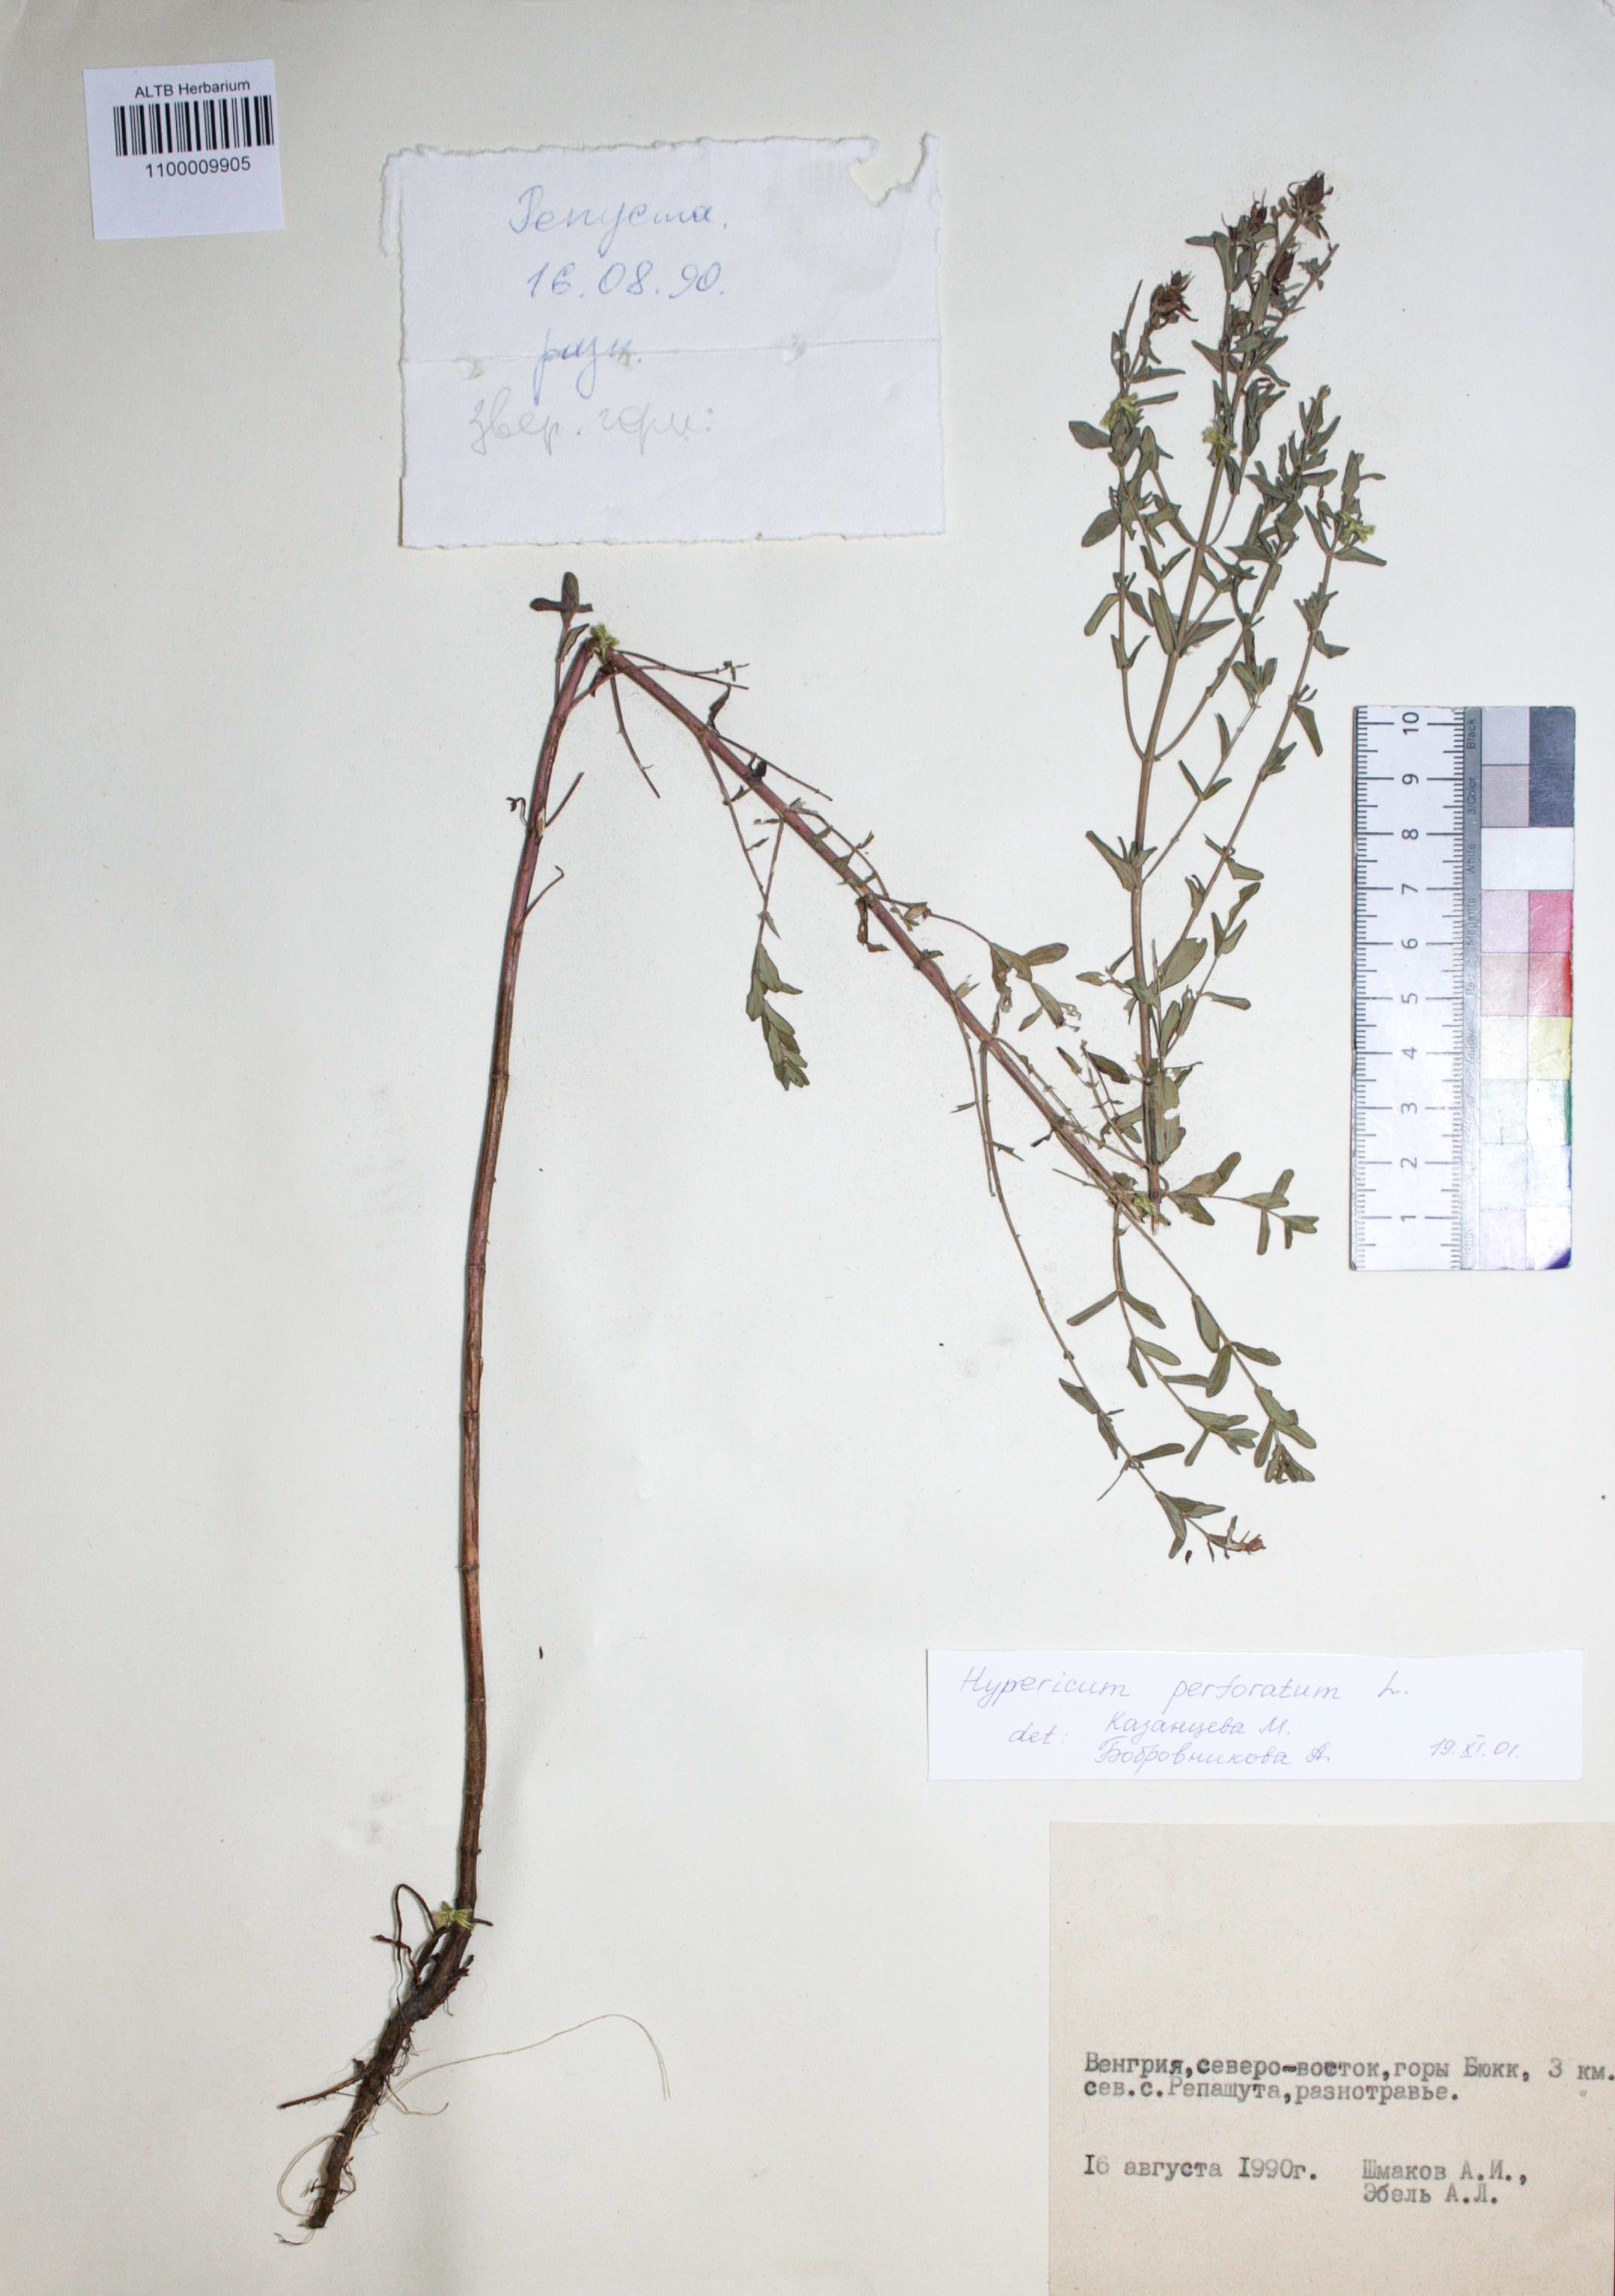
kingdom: Plantae
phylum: Tracheophyta
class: Magnoliopsida
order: Malpighiales
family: Hypericaceae
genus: Hypericum
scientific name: Hypericum perforatum
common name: Common st. johnswort
